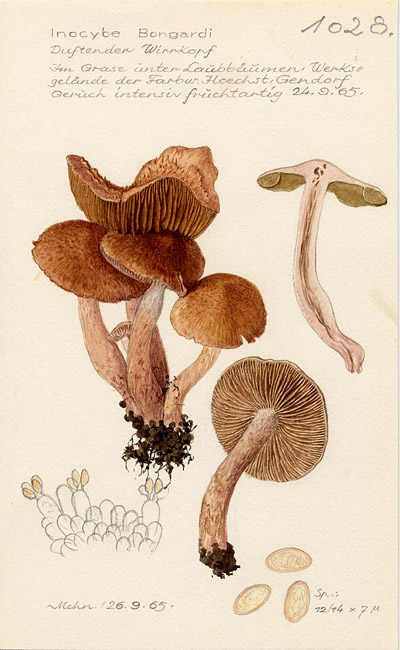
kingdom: Fungi
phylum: Basidiomycota
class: Agaricomycetes
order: Agaricales
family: Inocybaceae
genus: Inosperma
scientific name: Inosperma bongardii
